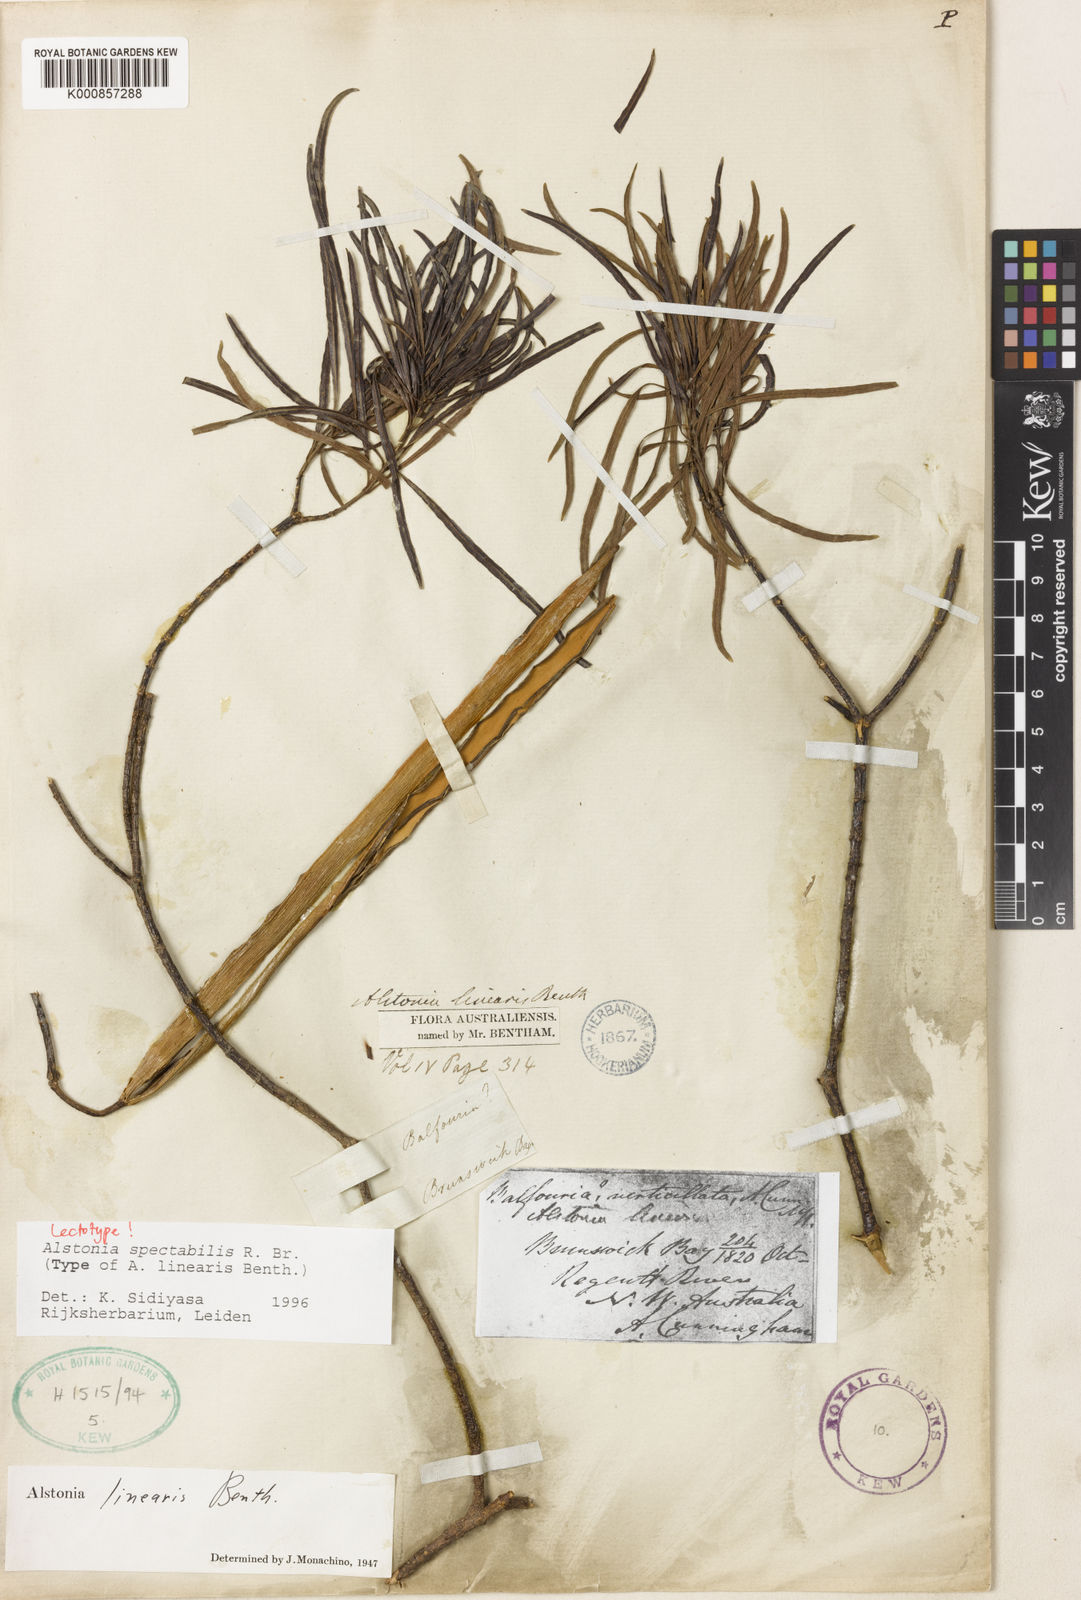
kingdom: Plantae
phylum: Tracheophyta
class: Magnoliopsida
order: Gentianales
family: Apocynaceae
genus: Alstonia
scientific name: Alstonia spectabilis
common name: Milky yellowwood
